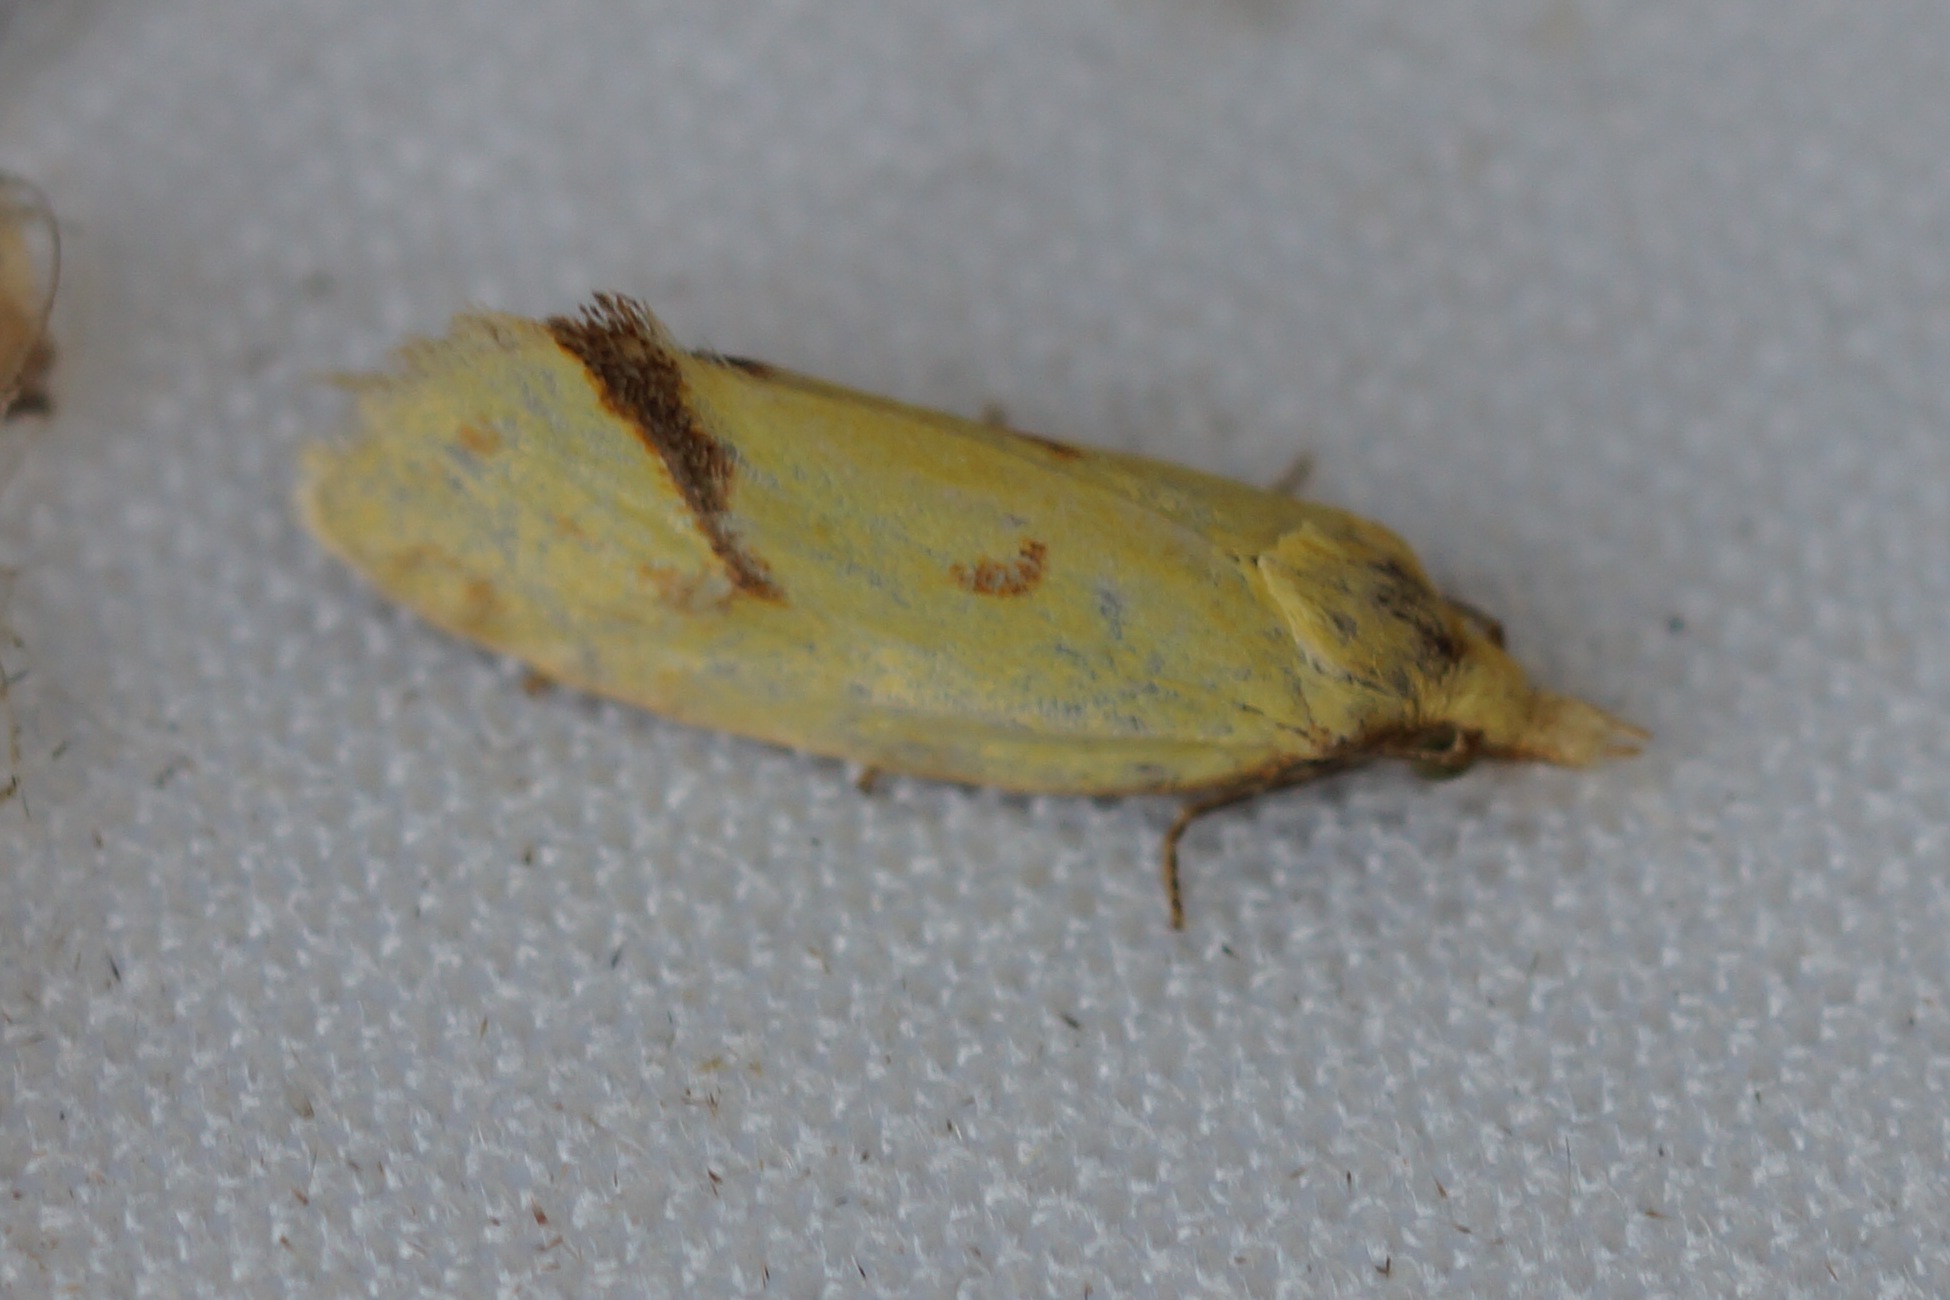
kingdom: Animalia
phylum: Arthropoda
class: Insecta
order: Lepidoptera
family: Tortricidae
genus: Agapeta
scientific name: Agapeta hamana
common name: Tidselgulvikler
